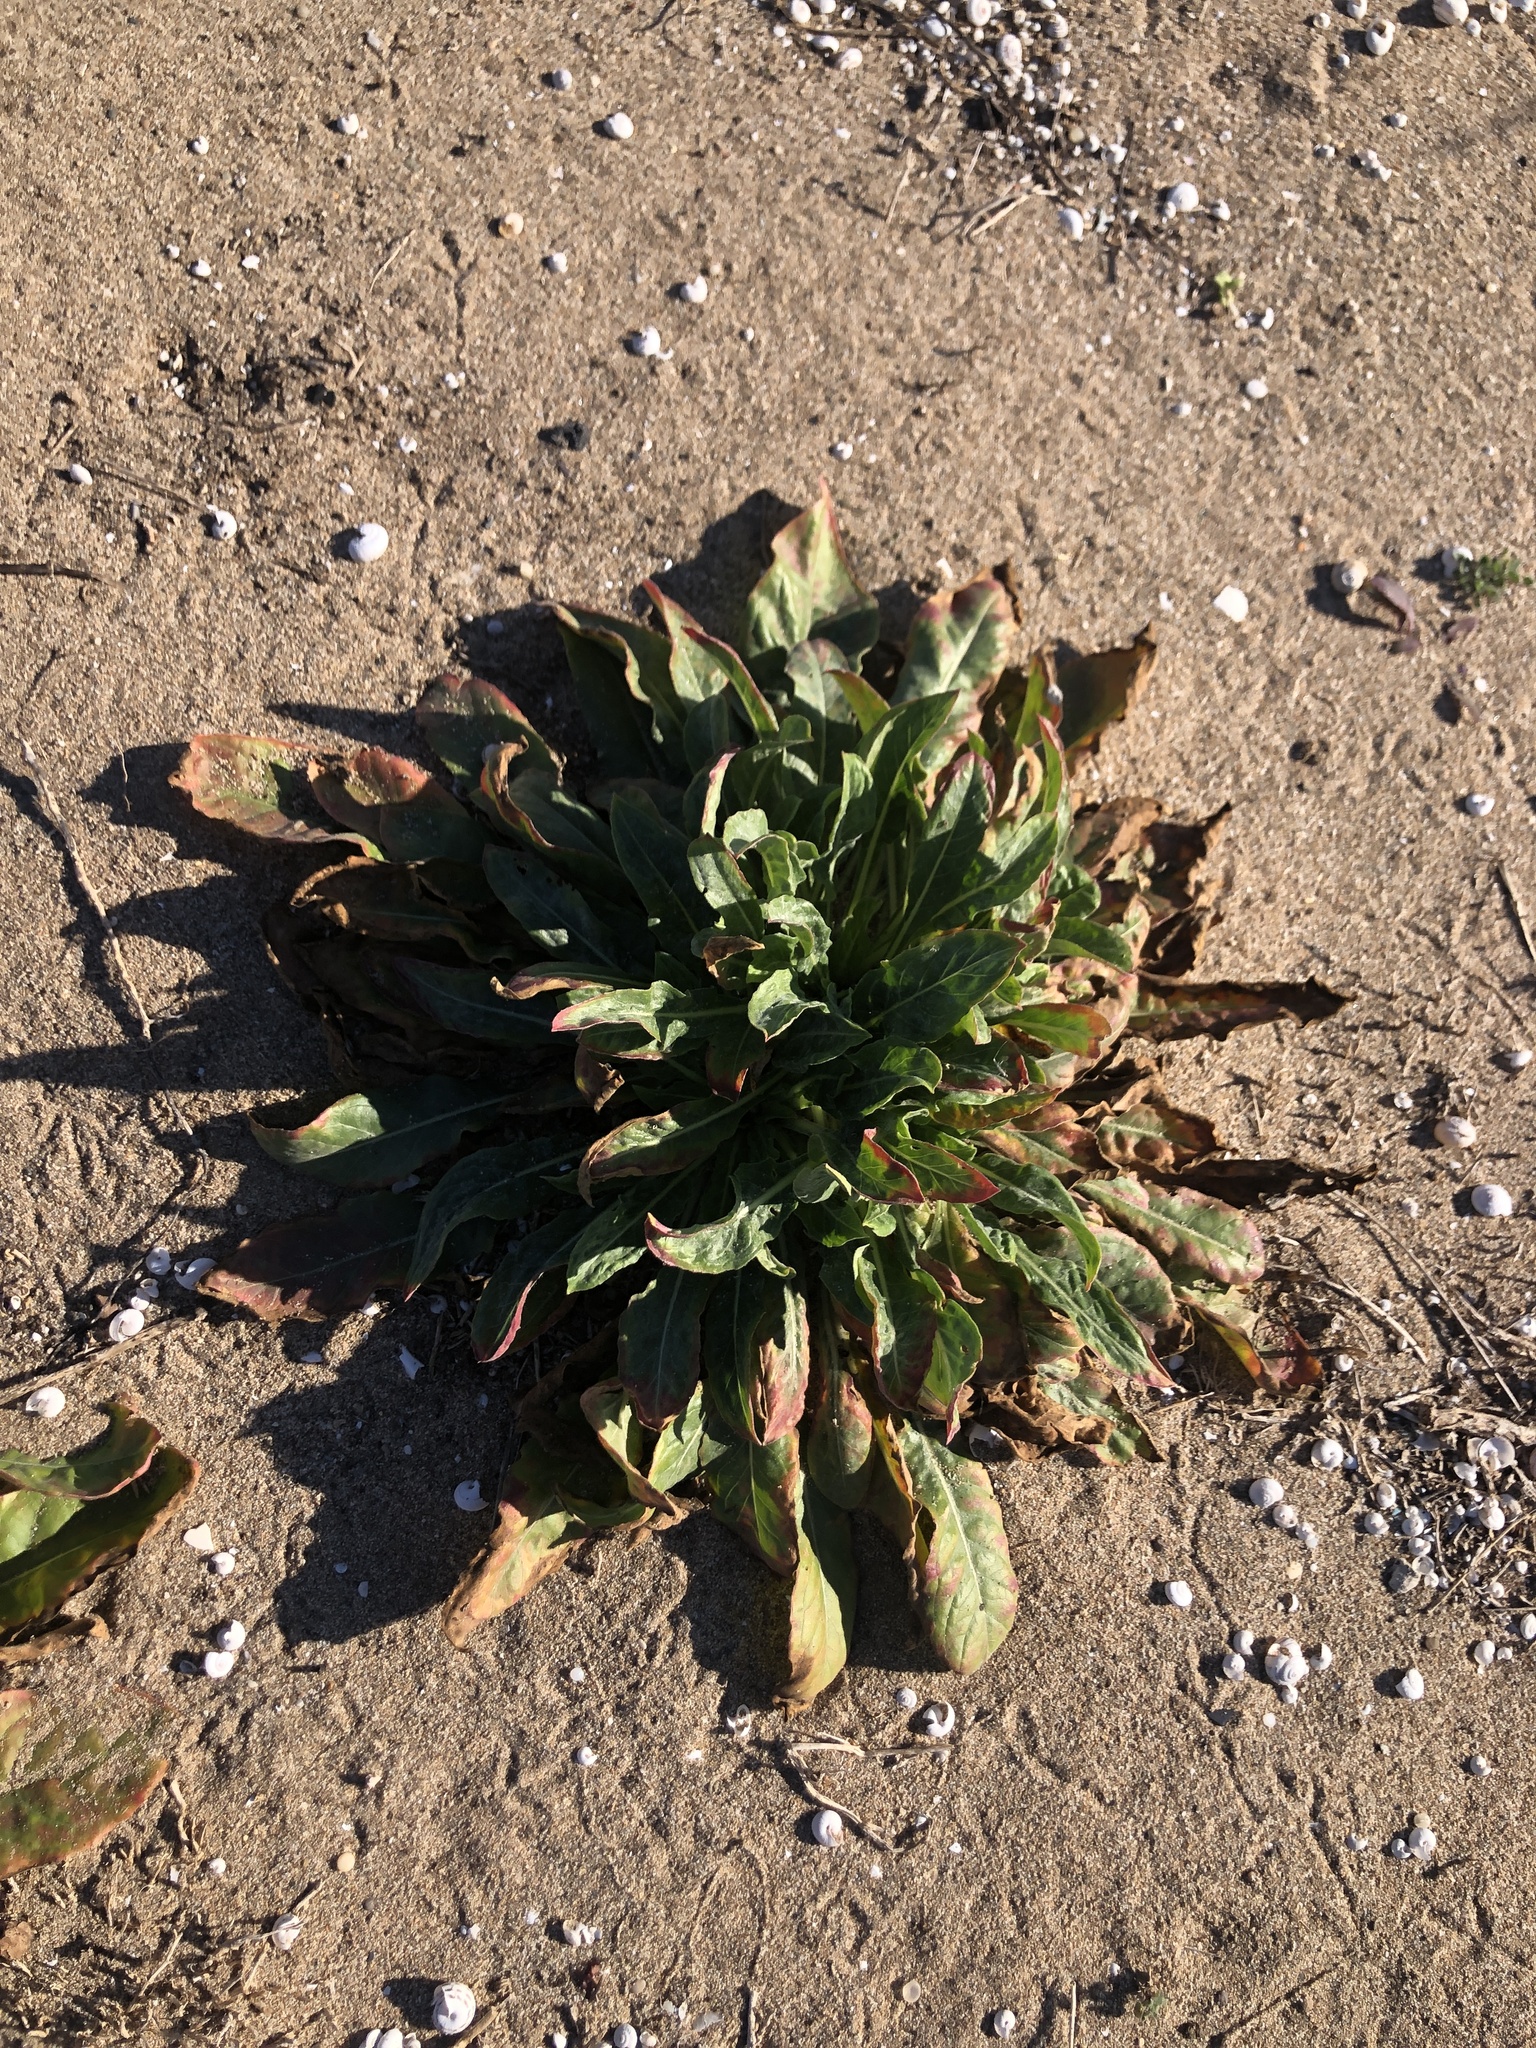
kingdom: Plantae
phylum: Tracheophyta
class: Magnoliopsida
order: Myrtales
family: Onagraceae
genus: Oenothera
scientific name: Oenothera glazioviana
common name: Large-flowered evening-primrose
